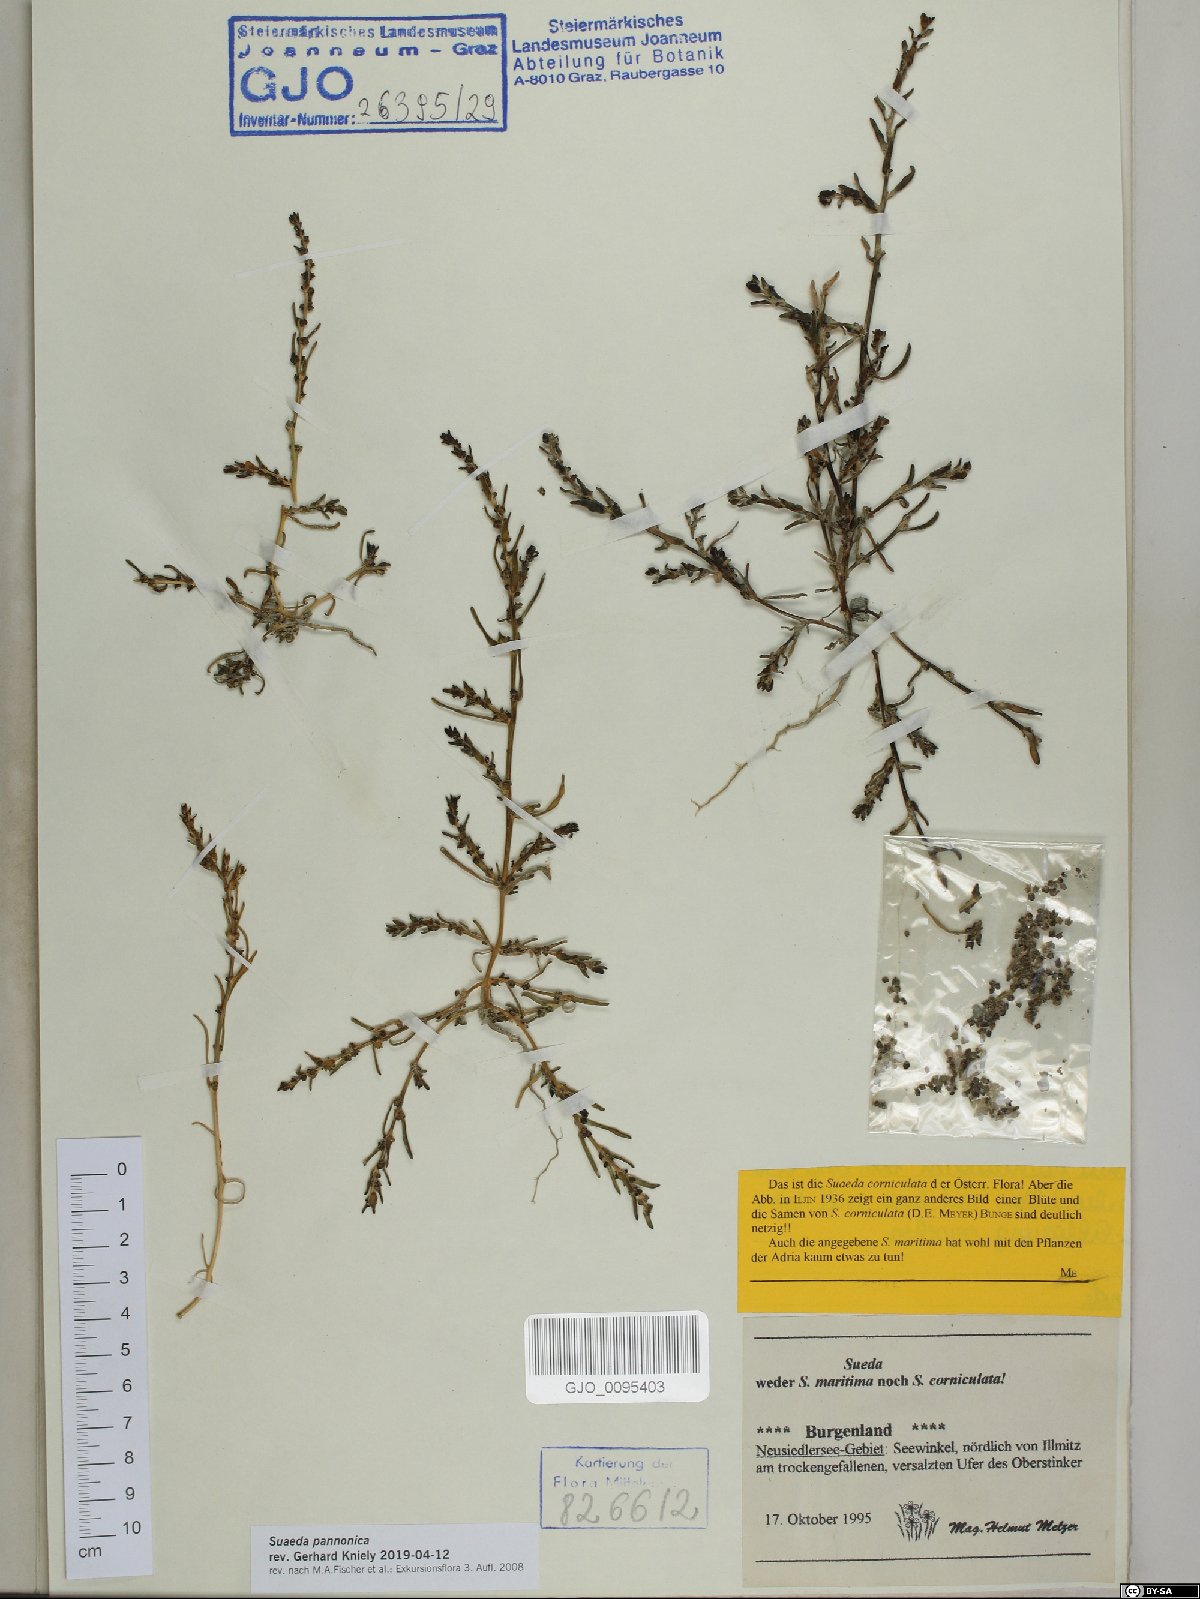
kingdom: Plantae
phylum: Tracheophyta
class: Magnoliopsida
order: Caryophyllales
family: Amaranthaceae
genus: Suaeda
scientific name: Suaeda pannonica
